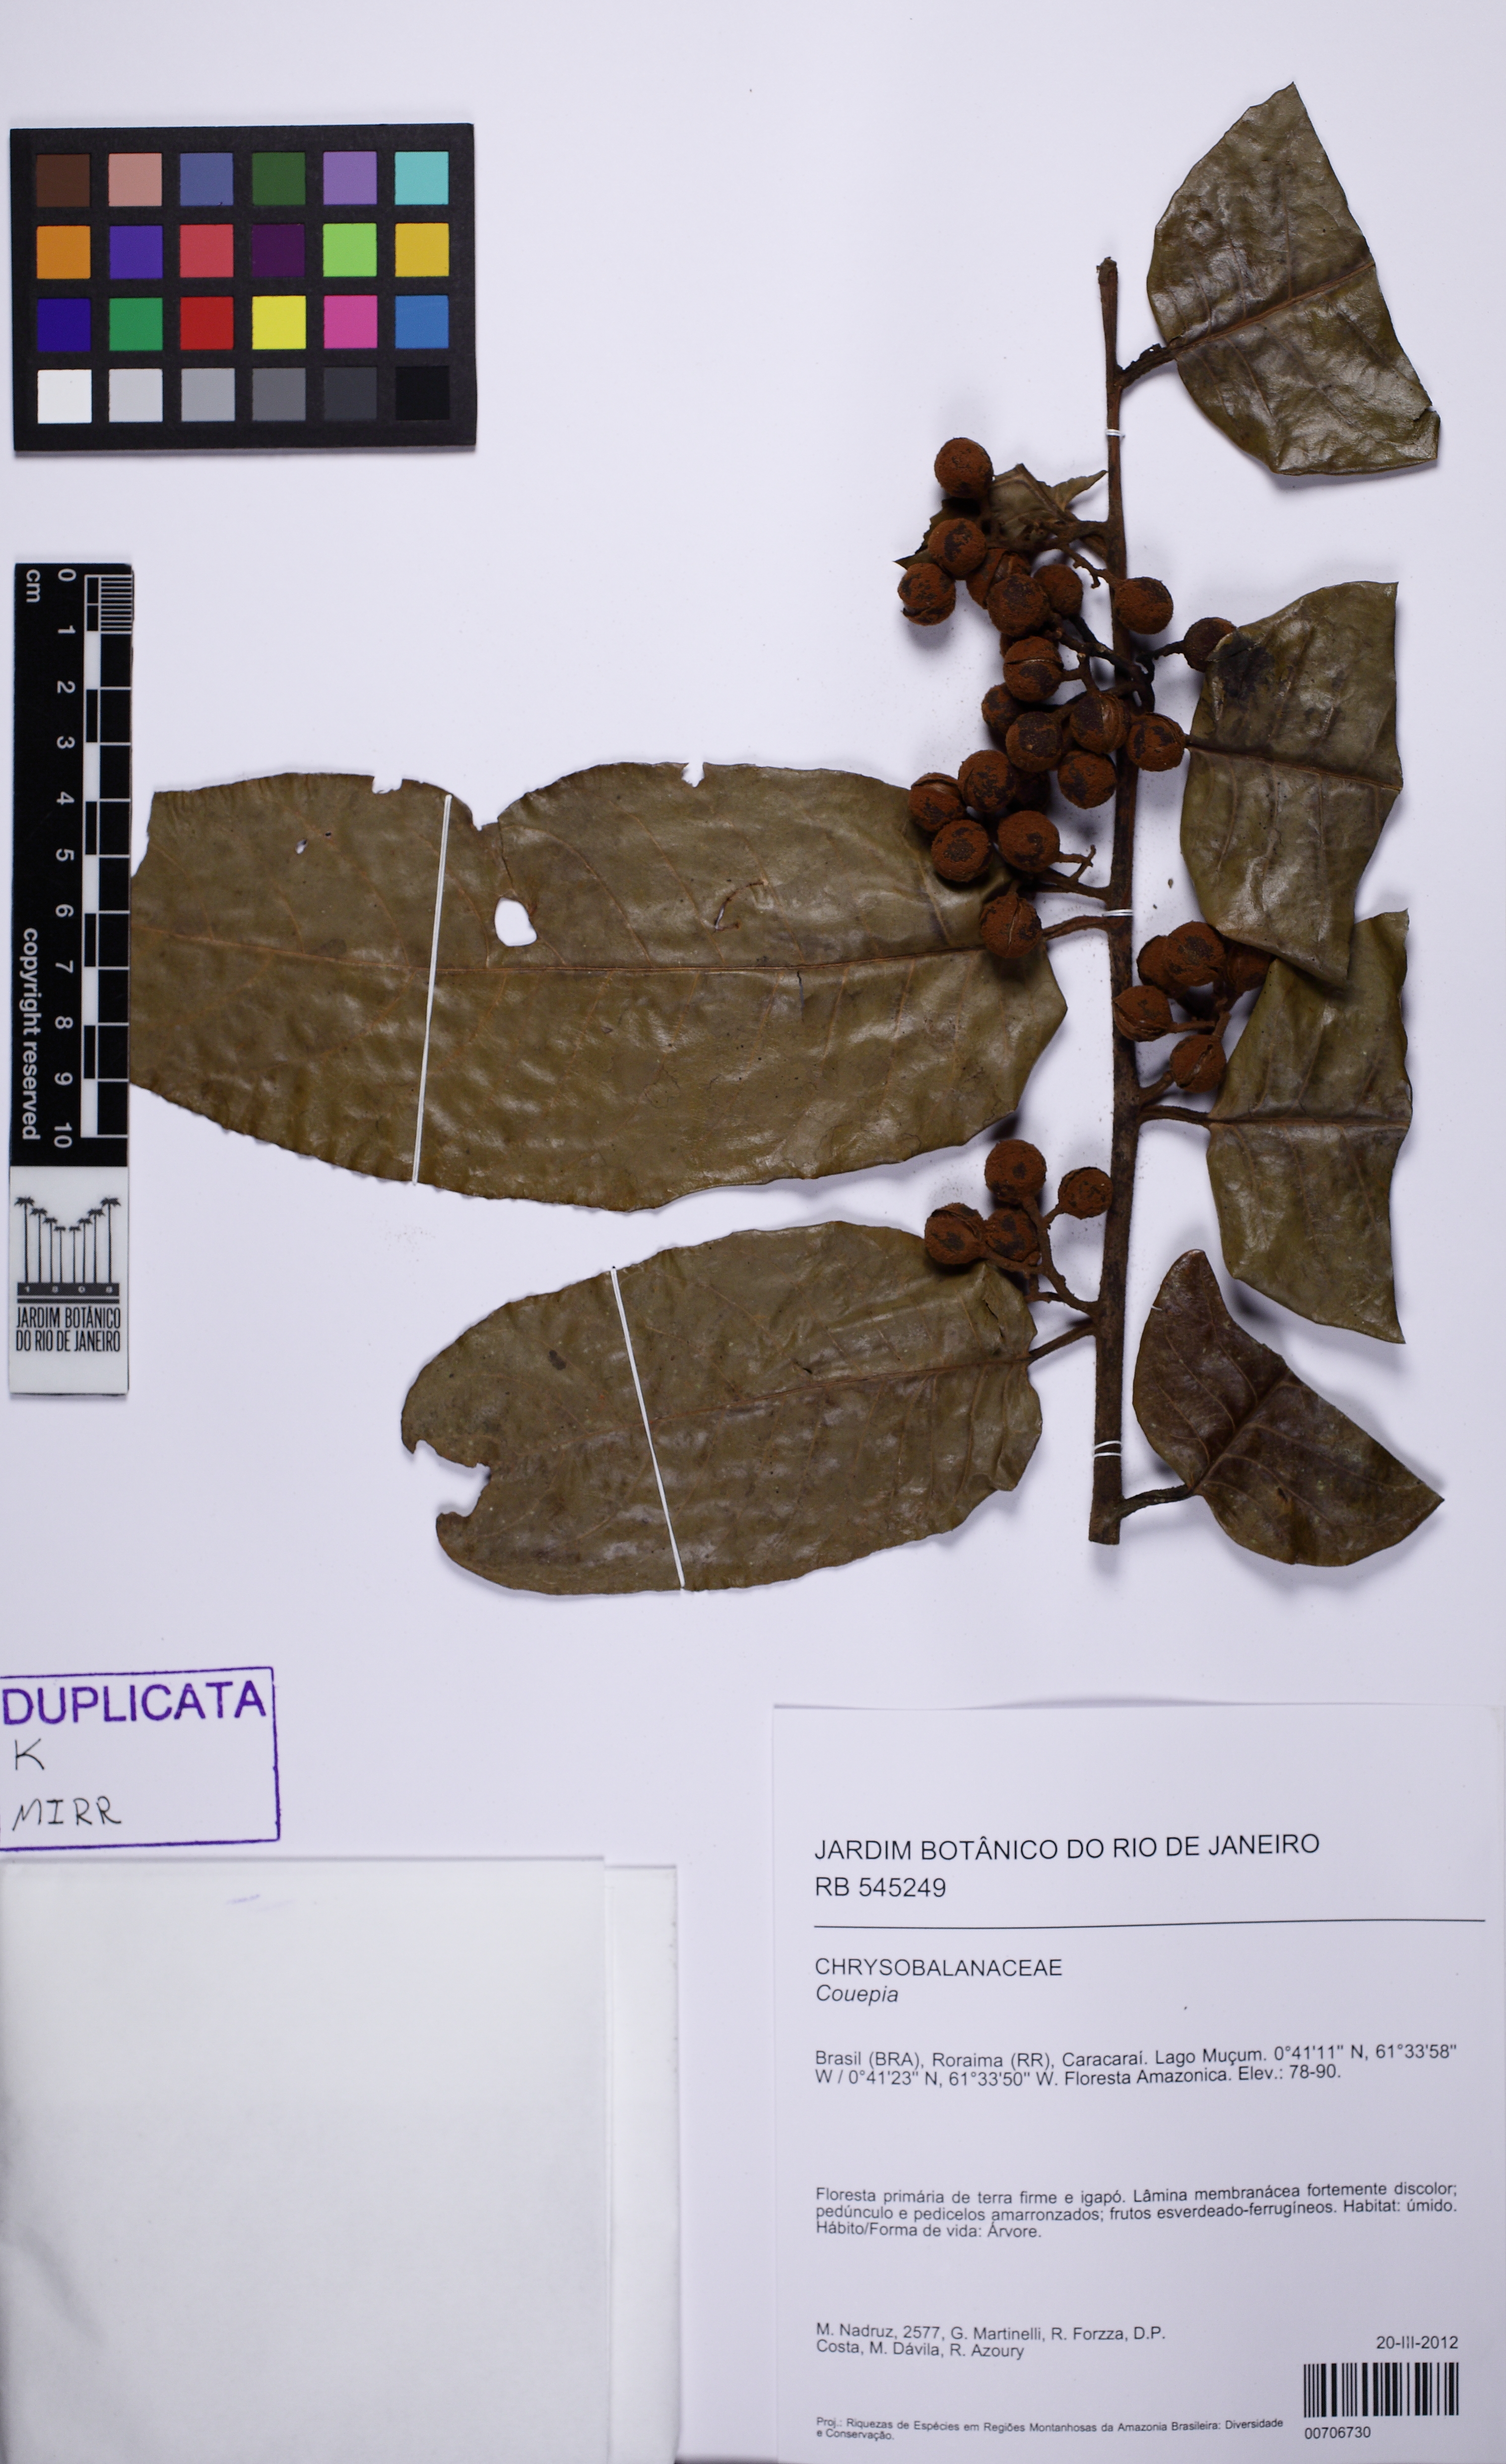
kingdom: Plantae
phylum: Tracheophyta
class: Magnoliopsida
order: Magnoliales
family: Myristicaceae
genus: Virola
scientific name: Virola
